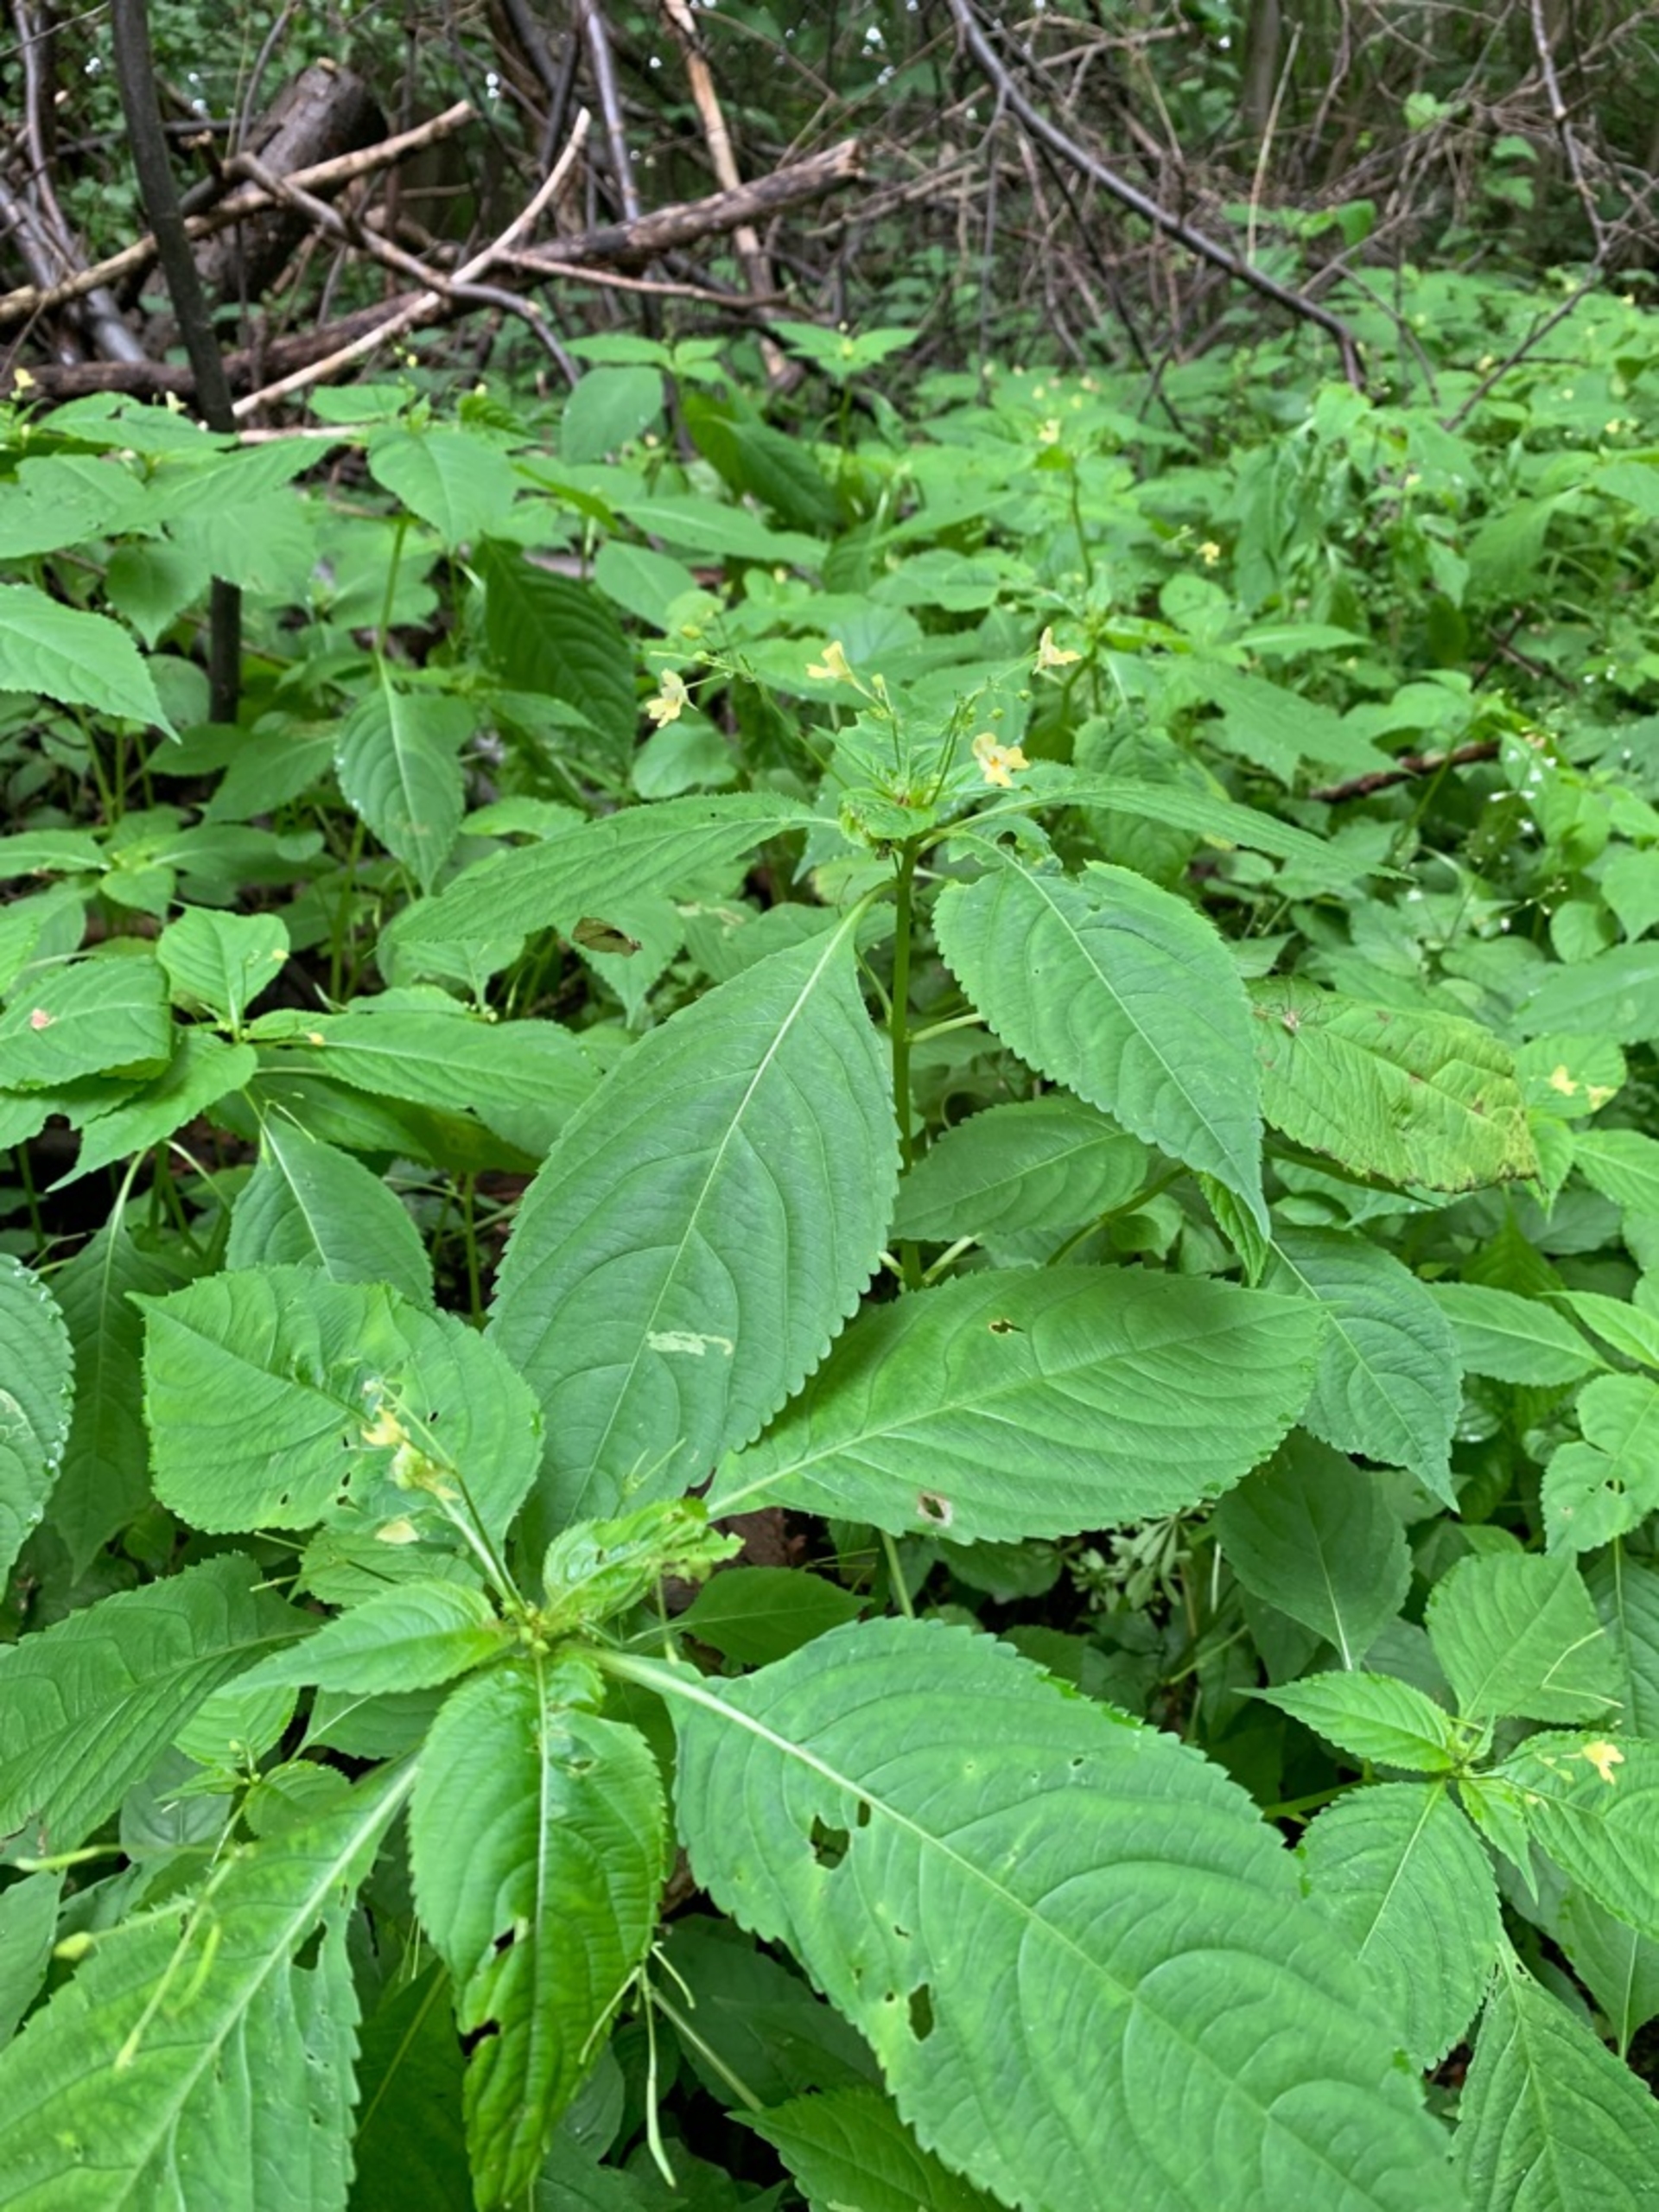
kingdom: Plantae
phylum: Tracheophyta
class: Magnoliopsida
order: Ericales
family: Balsaminaceae
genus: Impatiens
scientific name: Impatiens parviflora
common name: Småblomstret balsamin
